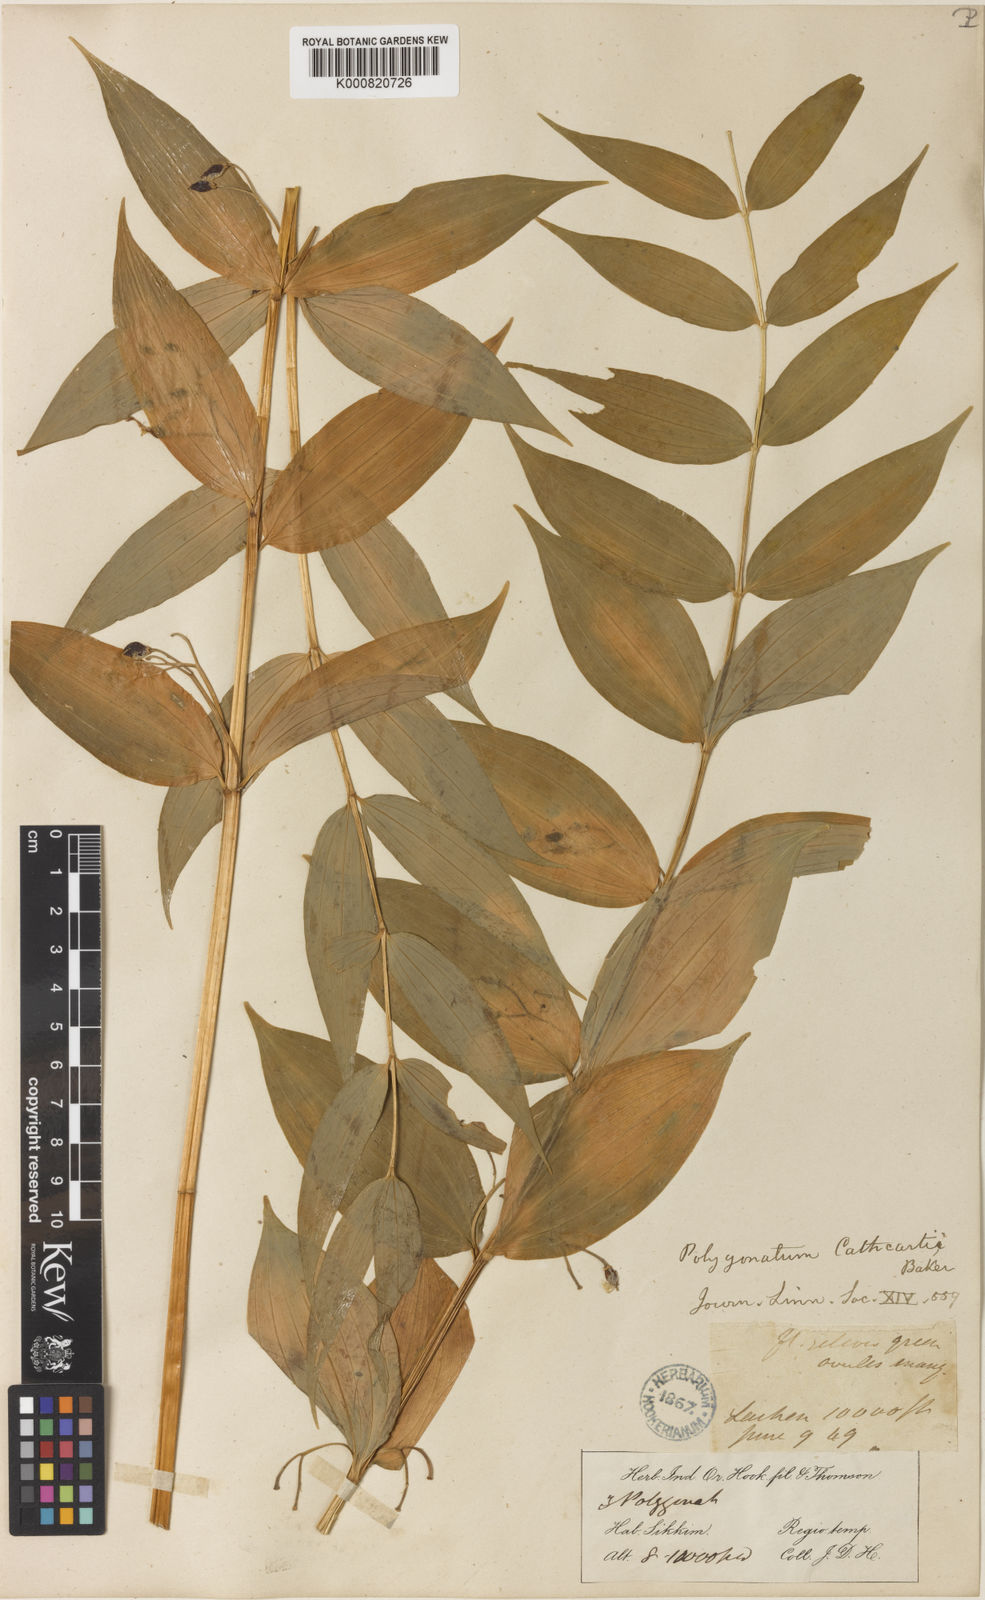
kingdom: Plantae
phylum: Tracheophyta
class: Liliopsida
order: Asparagales
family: Asparagaceae
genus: Polygonatum
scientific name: Polygonatum cathcartii
